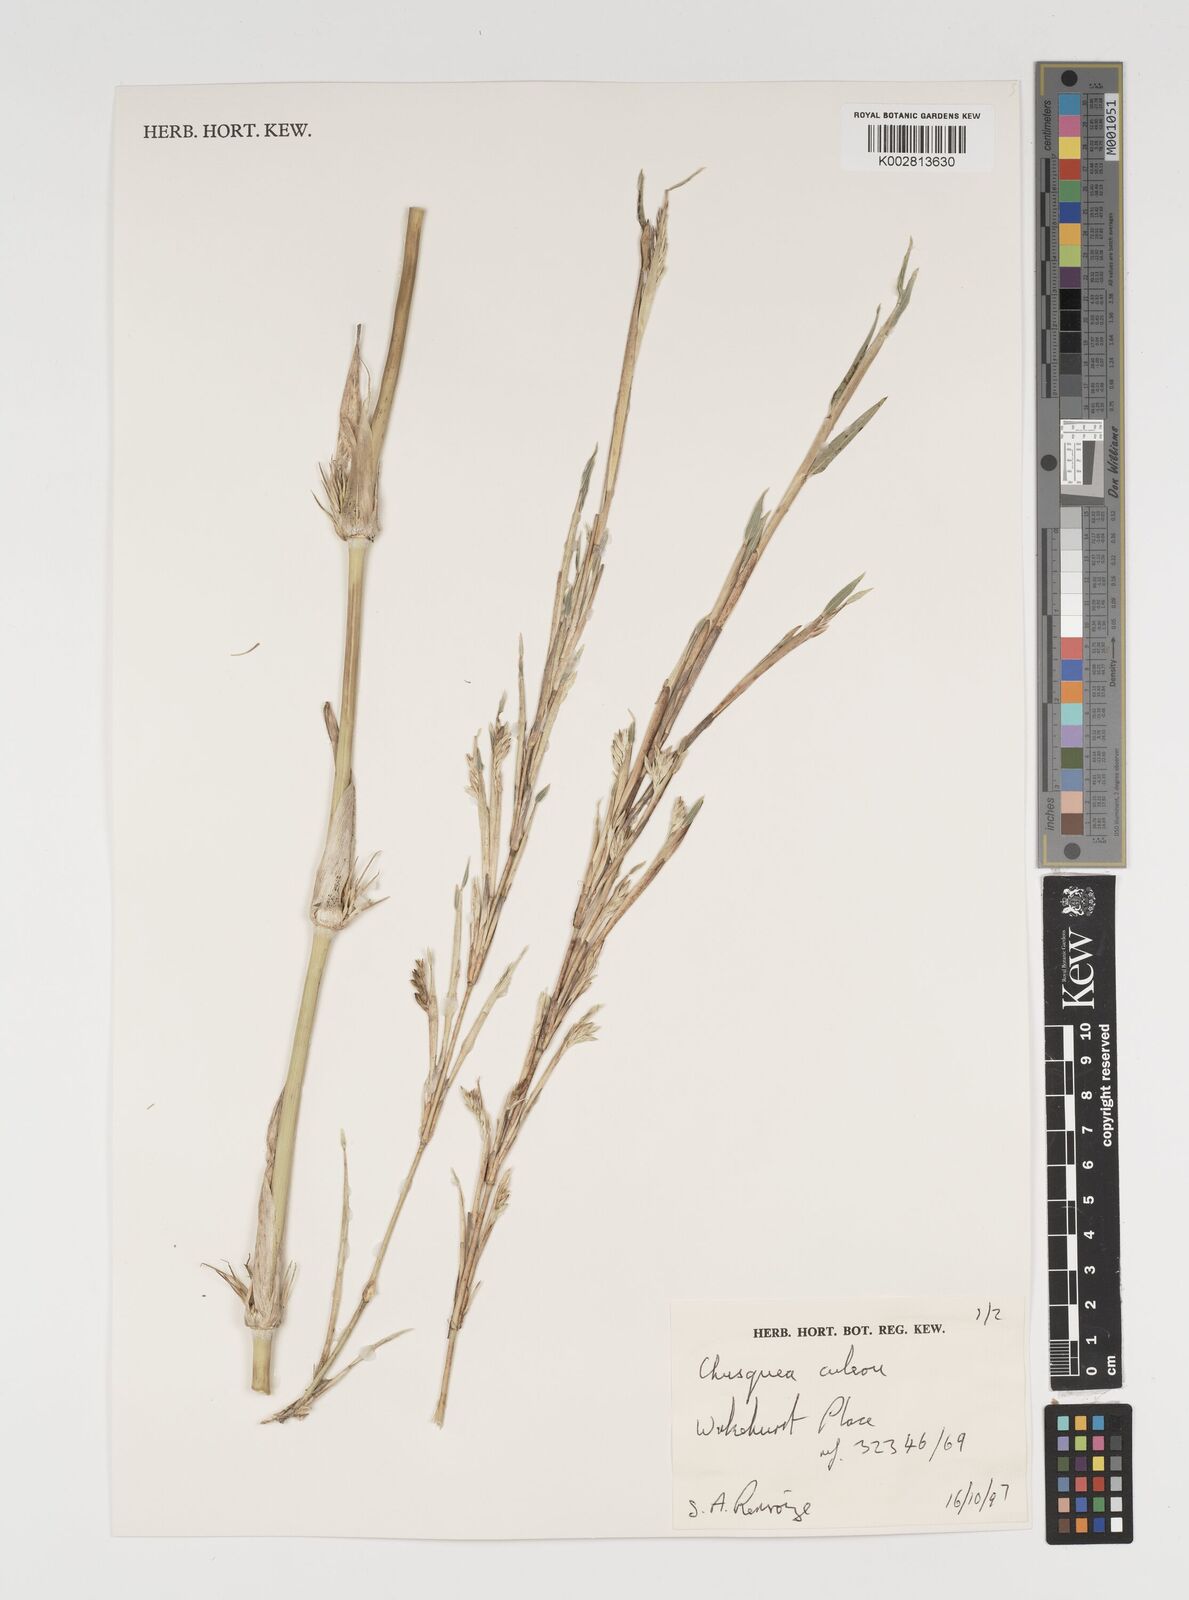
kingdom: Plantae
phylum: Tracheophyta
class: Liliopsida
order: Poales
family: Poaceae
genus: Chusquea
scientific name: Chusquea culeou
